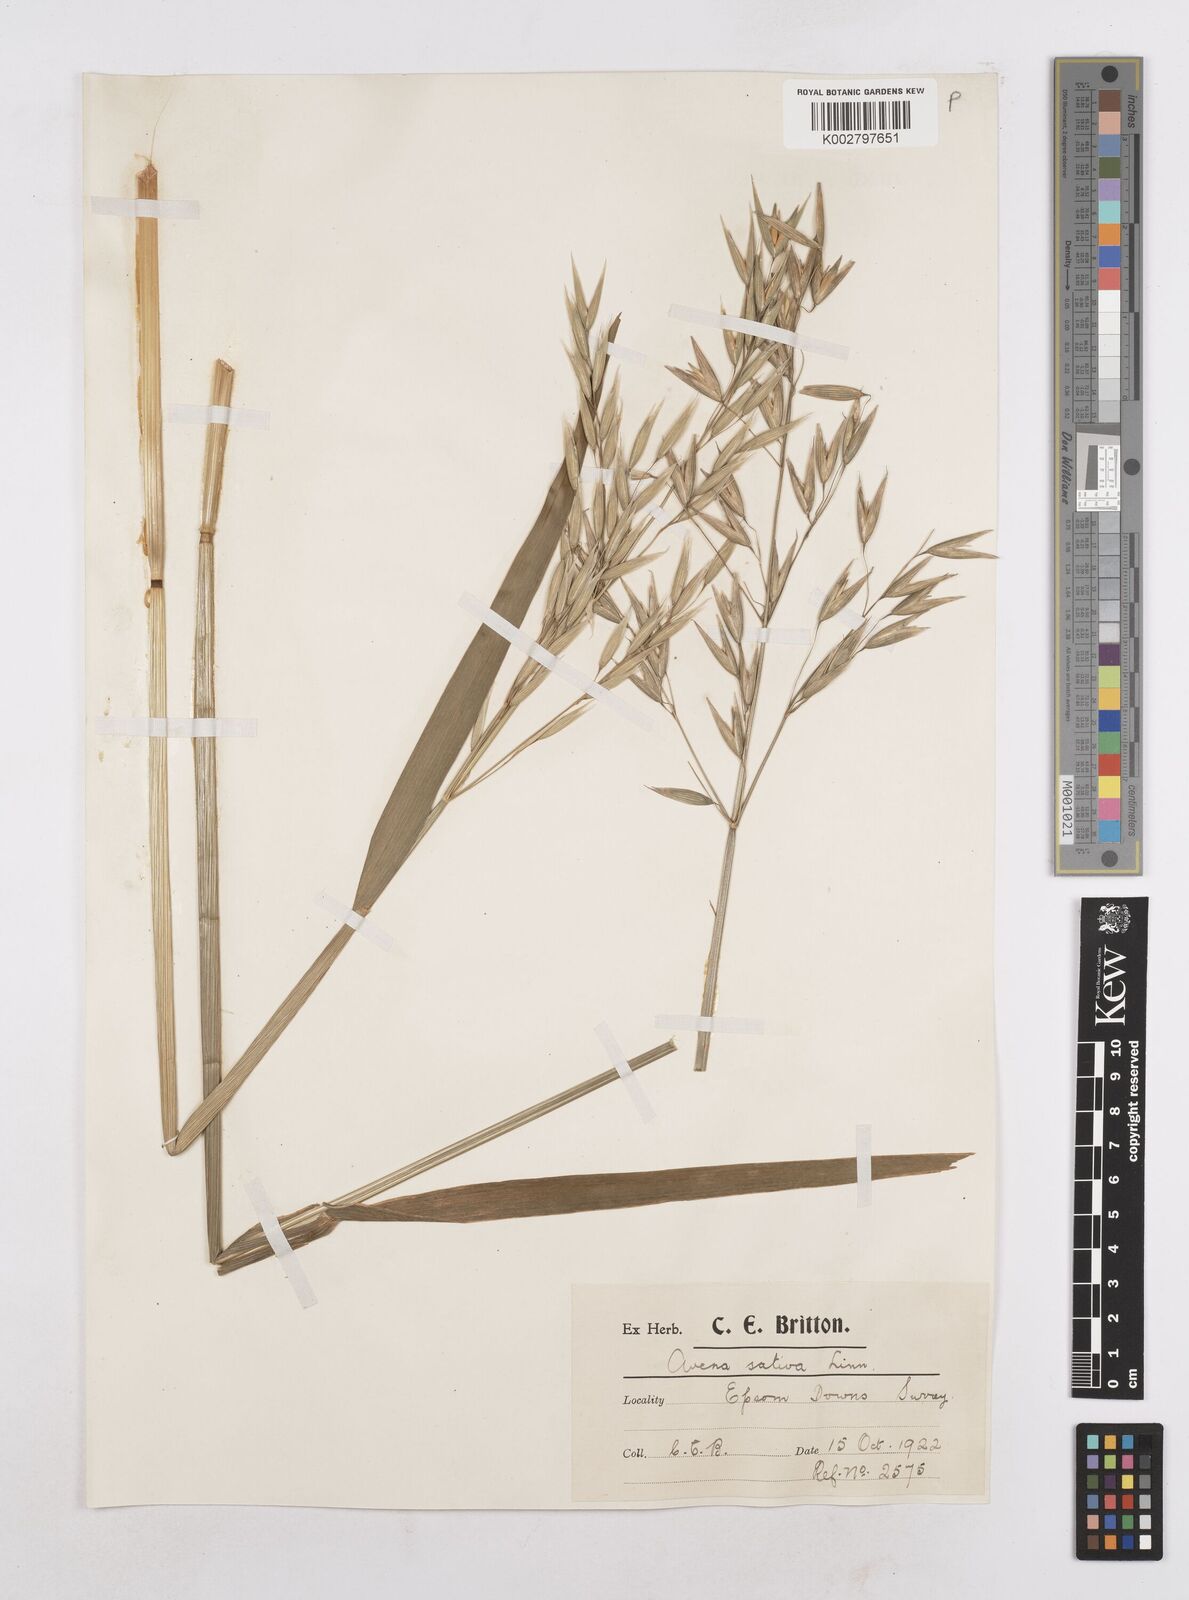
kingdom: Plantae
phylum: Tracheophyta
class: Liliopsida
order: Poales
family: Poaceae
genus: Avena
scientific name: Avena byzantina
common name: Algerian oat
